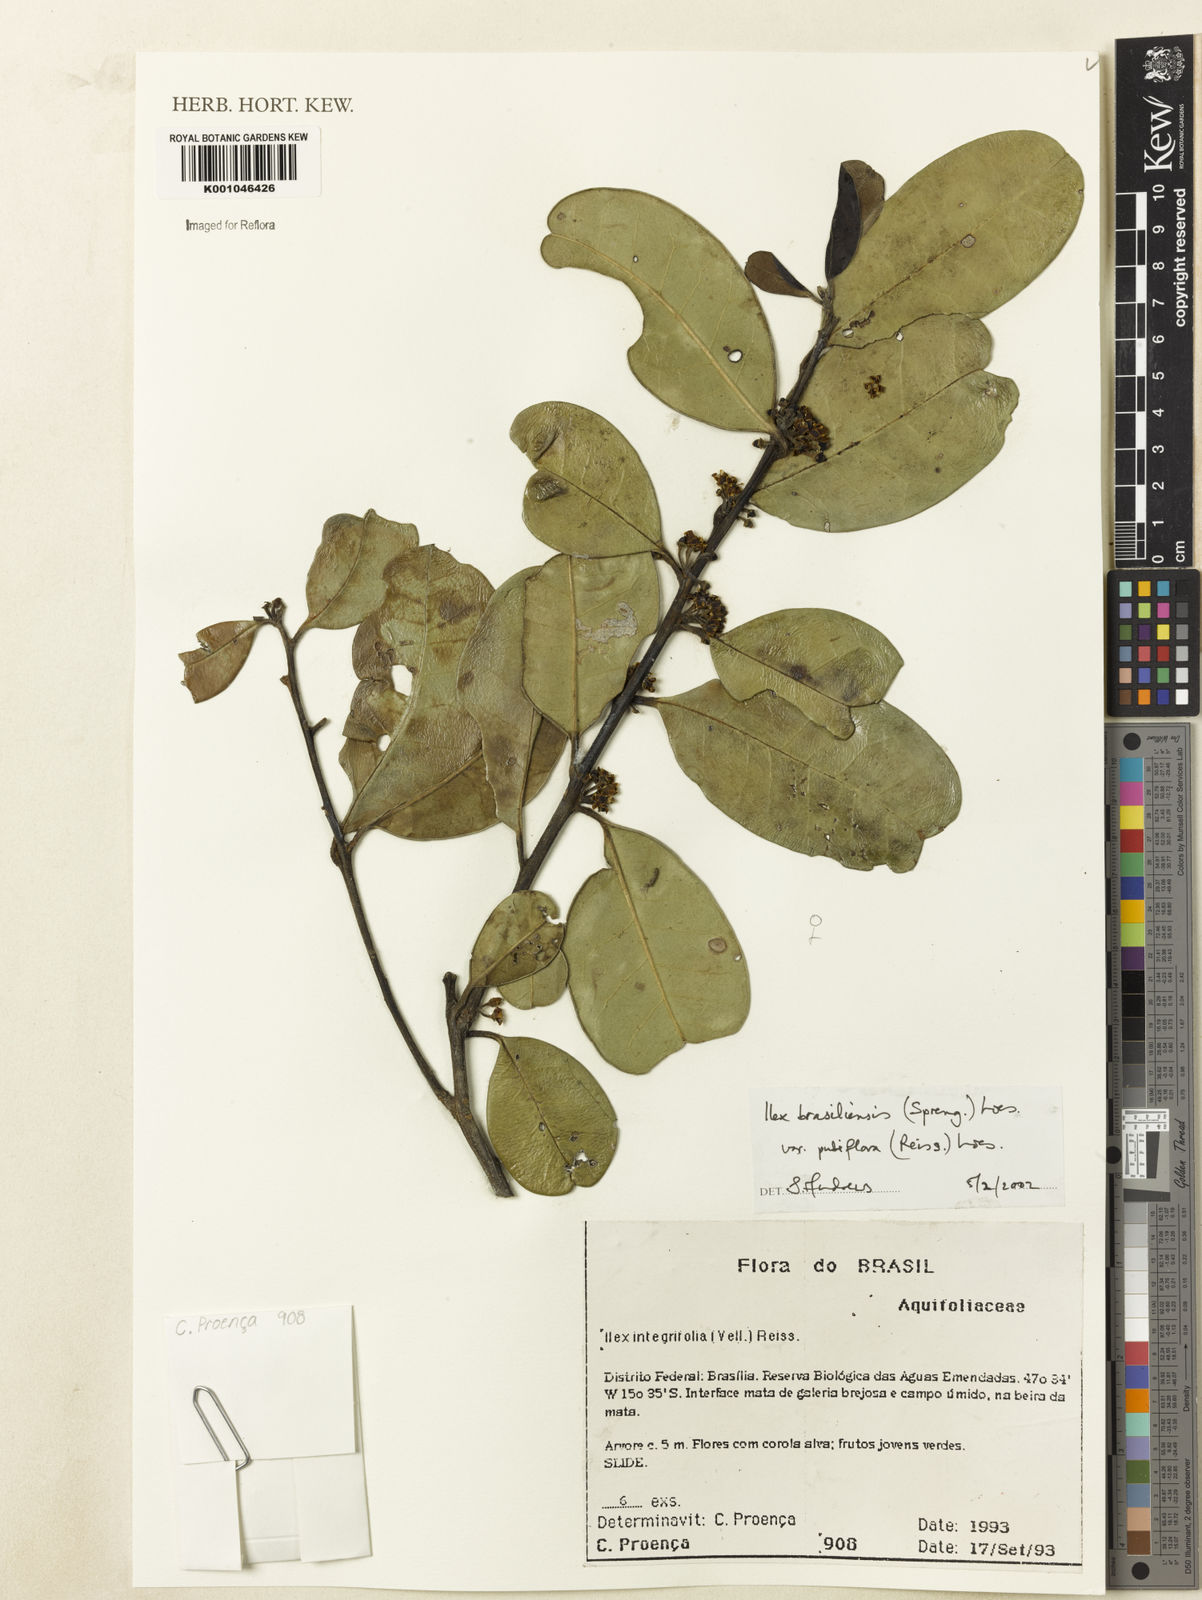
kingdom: Plantae
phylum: Tracheophyta
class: Magnoliopsida
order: Aquifoliales
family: Aquifoliaceae
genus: Ilex
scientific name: Ilex brasiliensis
